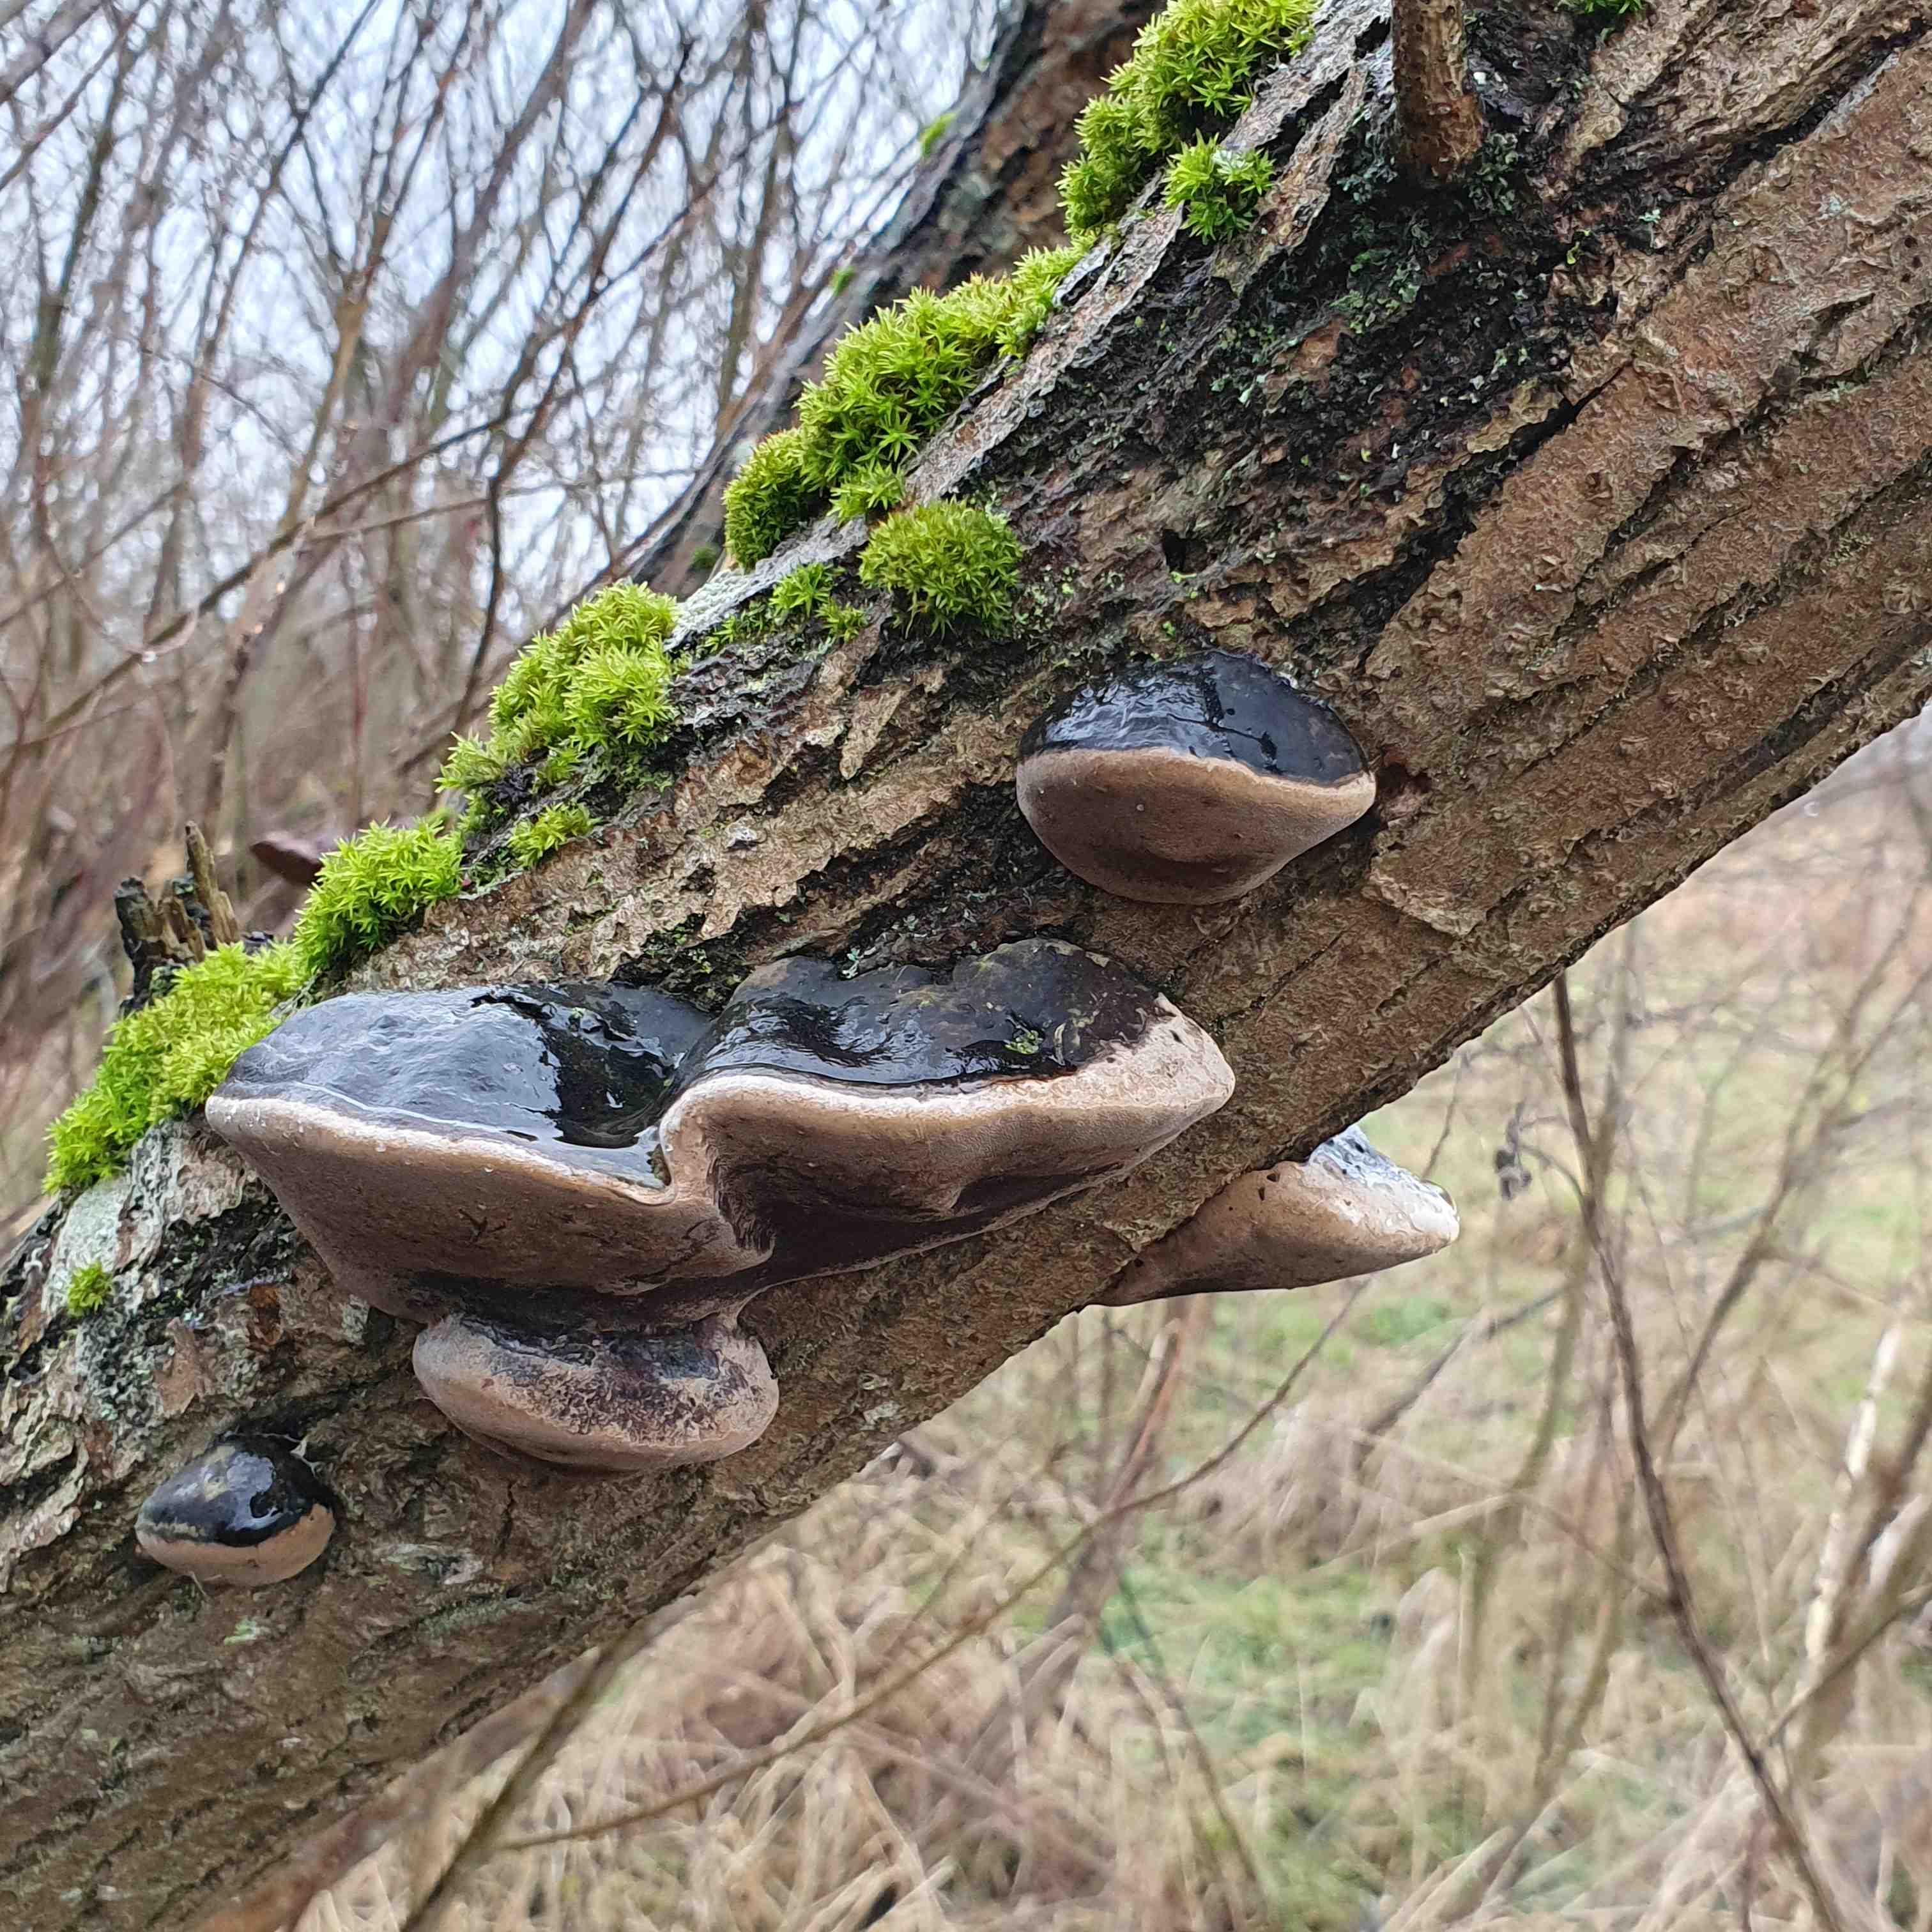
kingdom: Fungi
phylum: Basidiomycota
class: Agaricomycetes
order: Hymenochaetales
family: Hymenochaetaceae
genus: Phellinus
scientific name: Phellinus igniarius
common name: almindelig ildporesvamp
